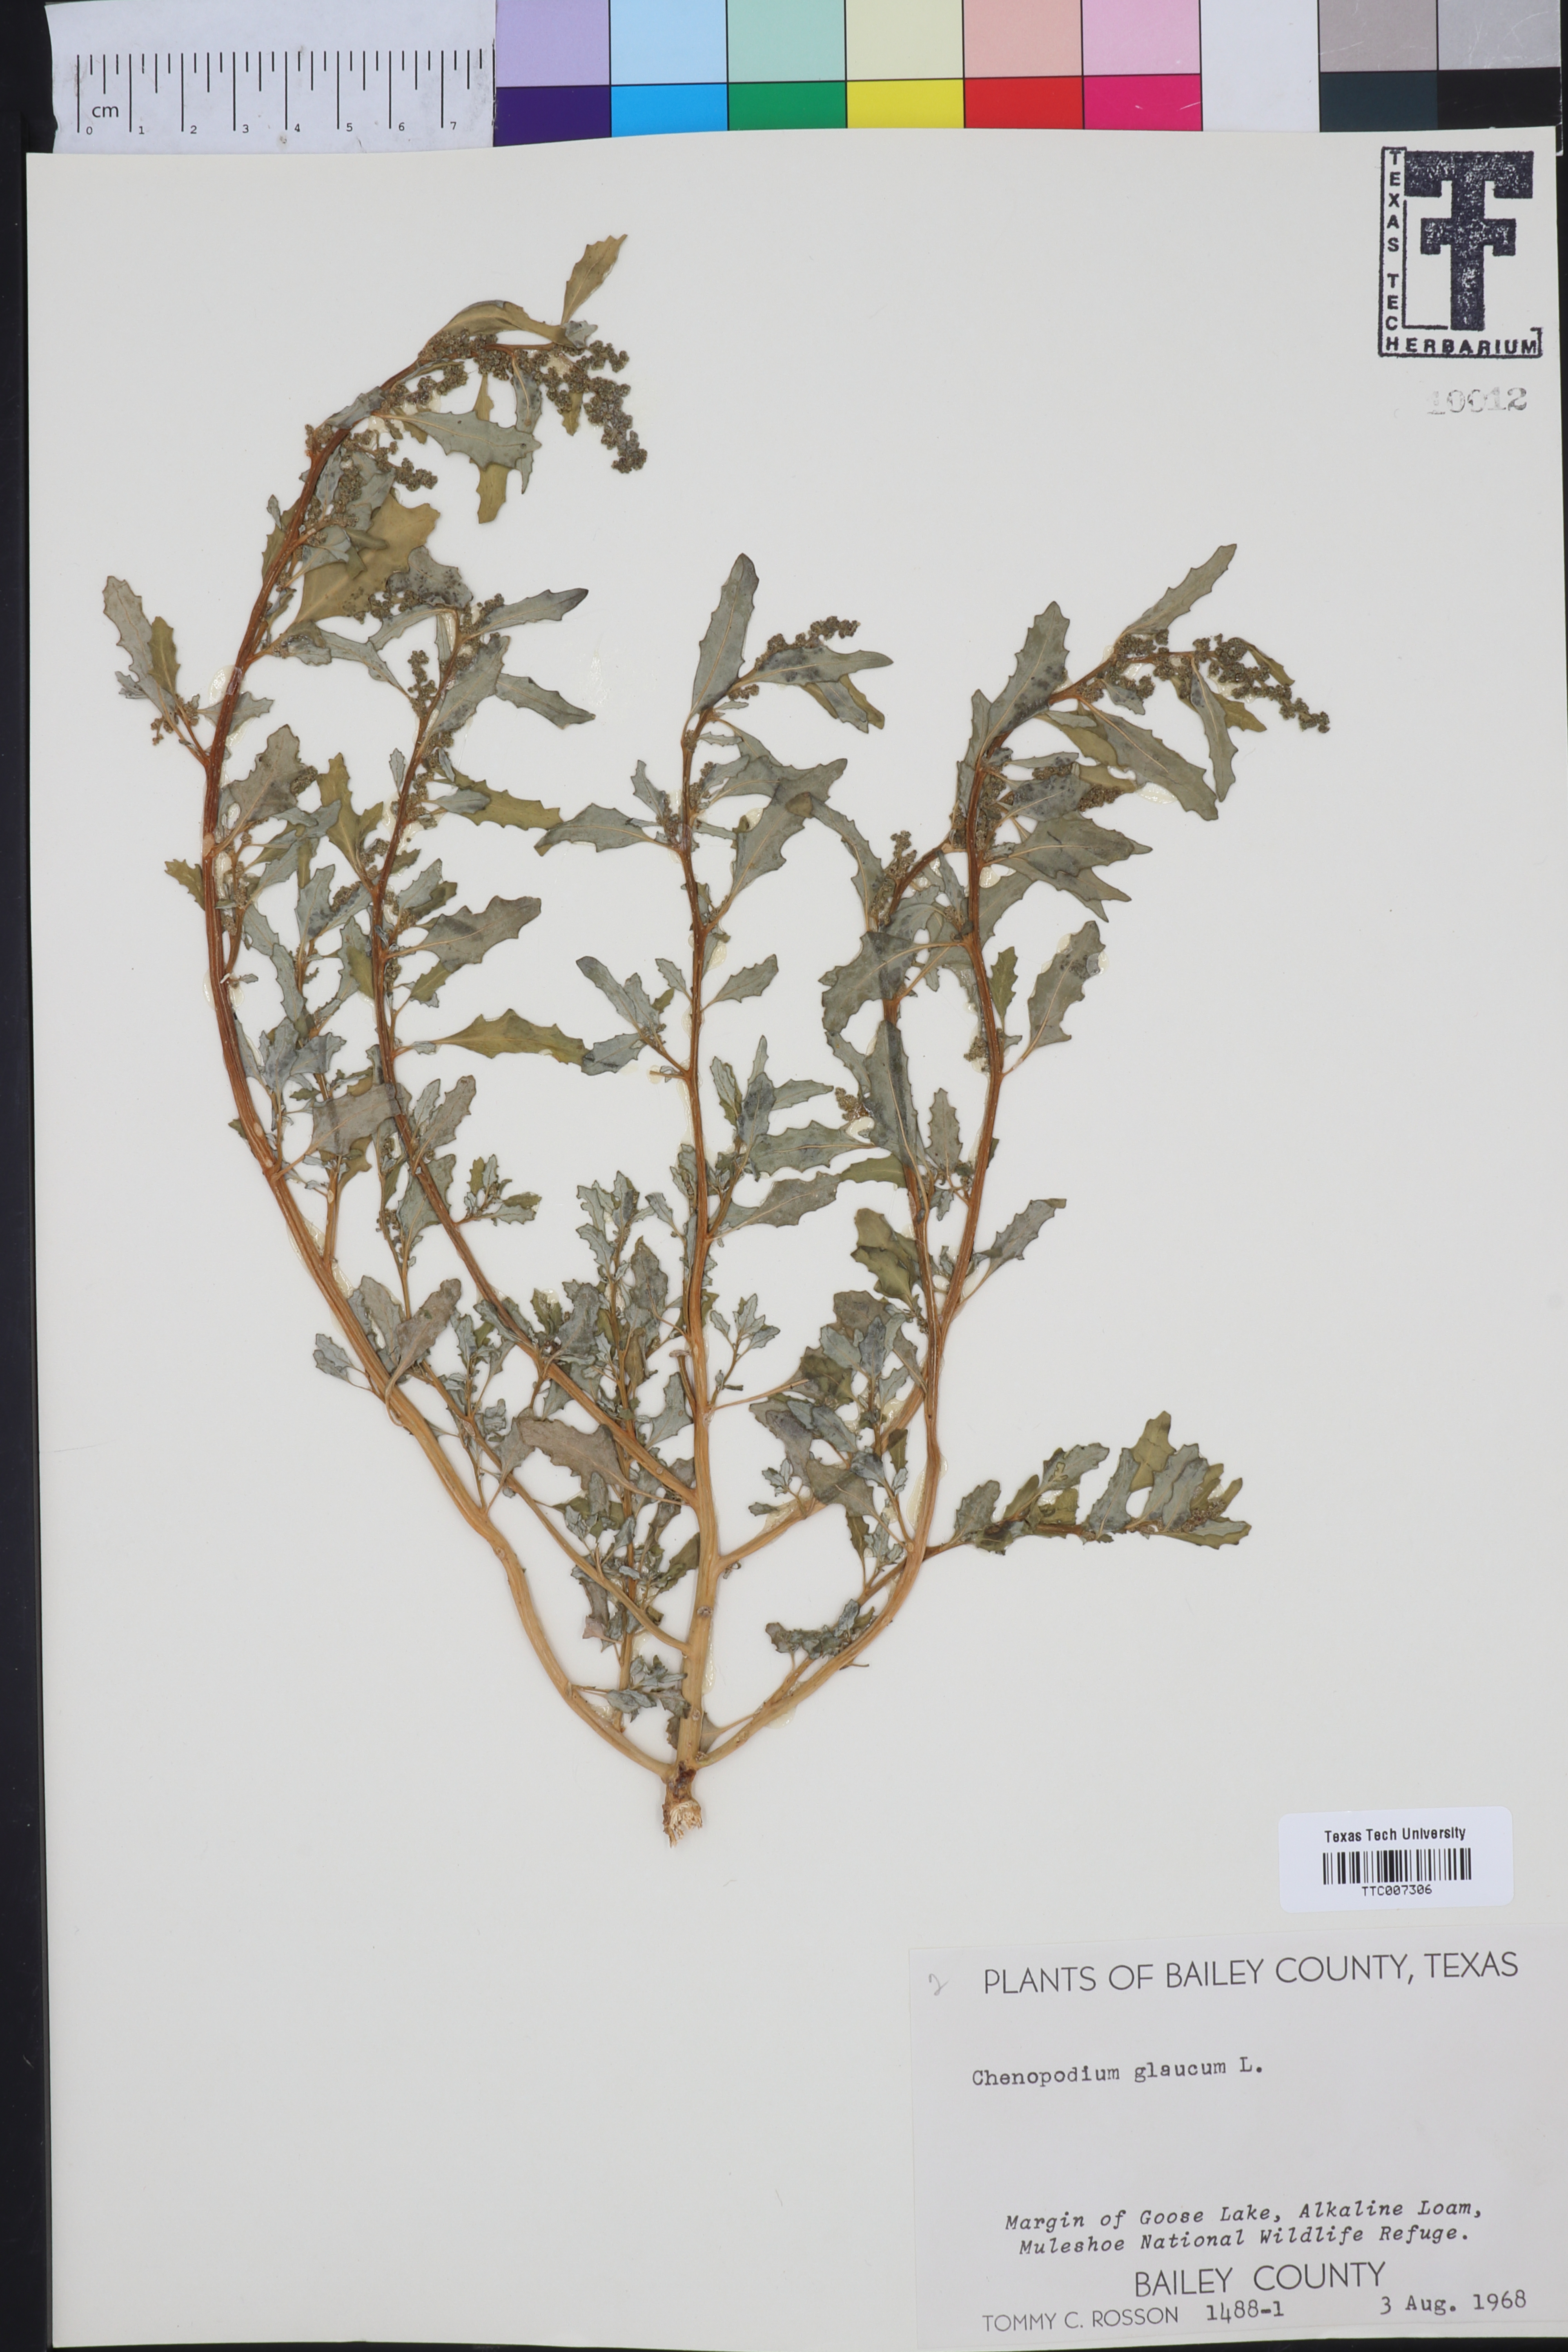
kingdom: Plantae
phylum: Tracheophyta
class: Magnoliopsida
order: Caryophyllales
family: Amaranthaceae
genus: Oxybasis
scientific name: Oxybasis glauca
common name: Glaucous goosefoot
